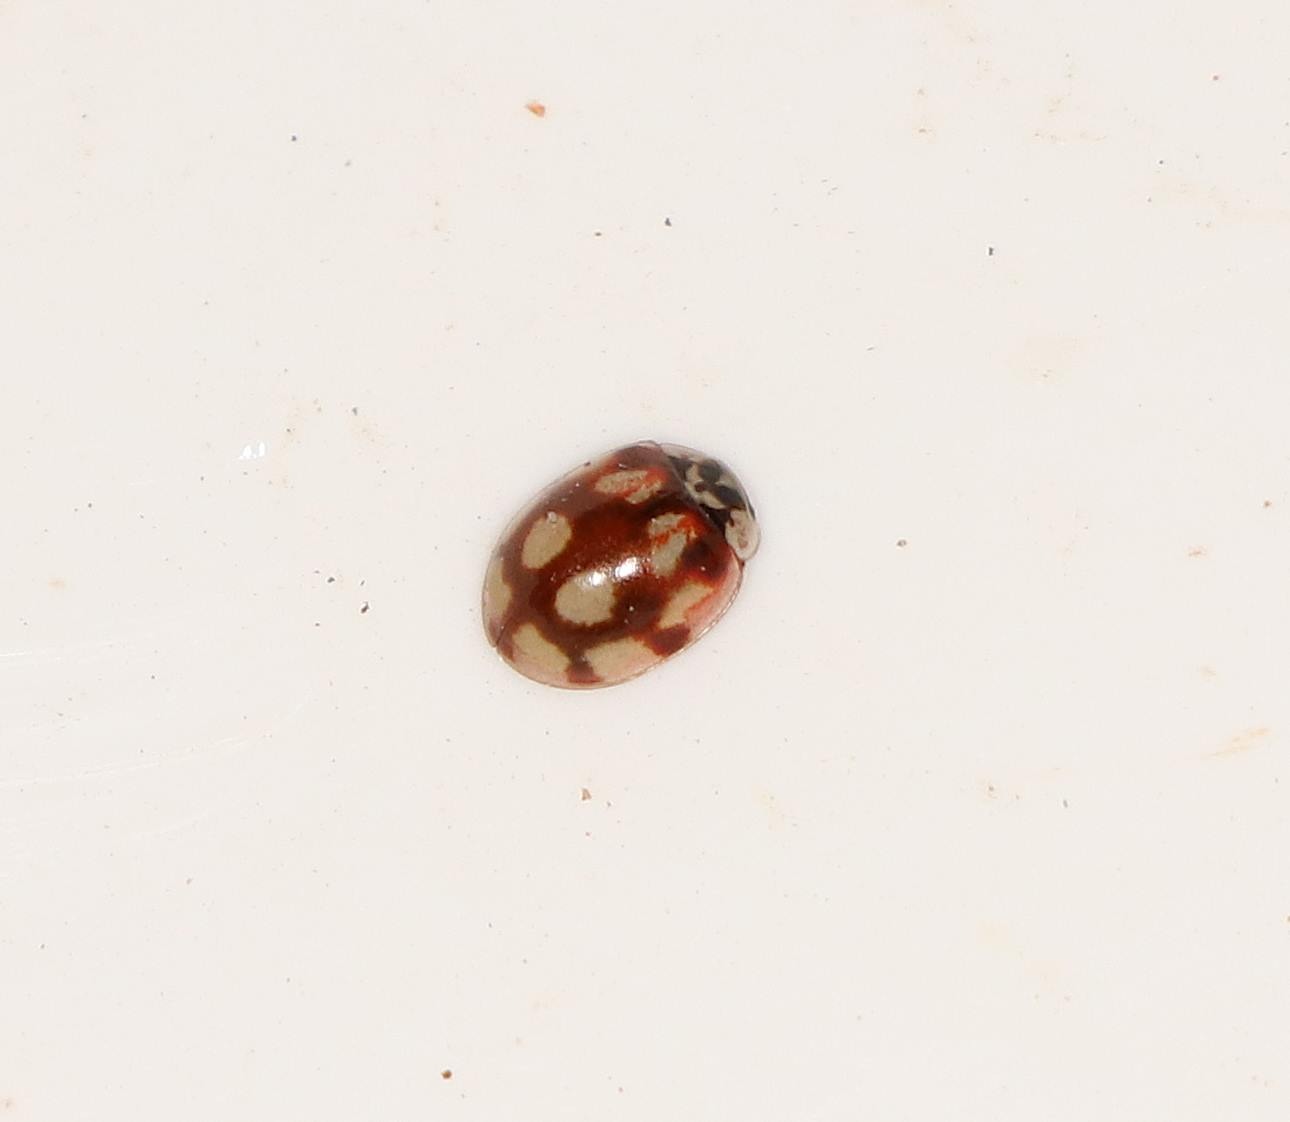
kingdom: Animalia
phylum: Arthropoda
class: Insecta
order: Coleoptera
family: Coccinellidae
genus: Adalia
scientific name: Adalia decempunctata
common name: Tiplettet mariehøne
